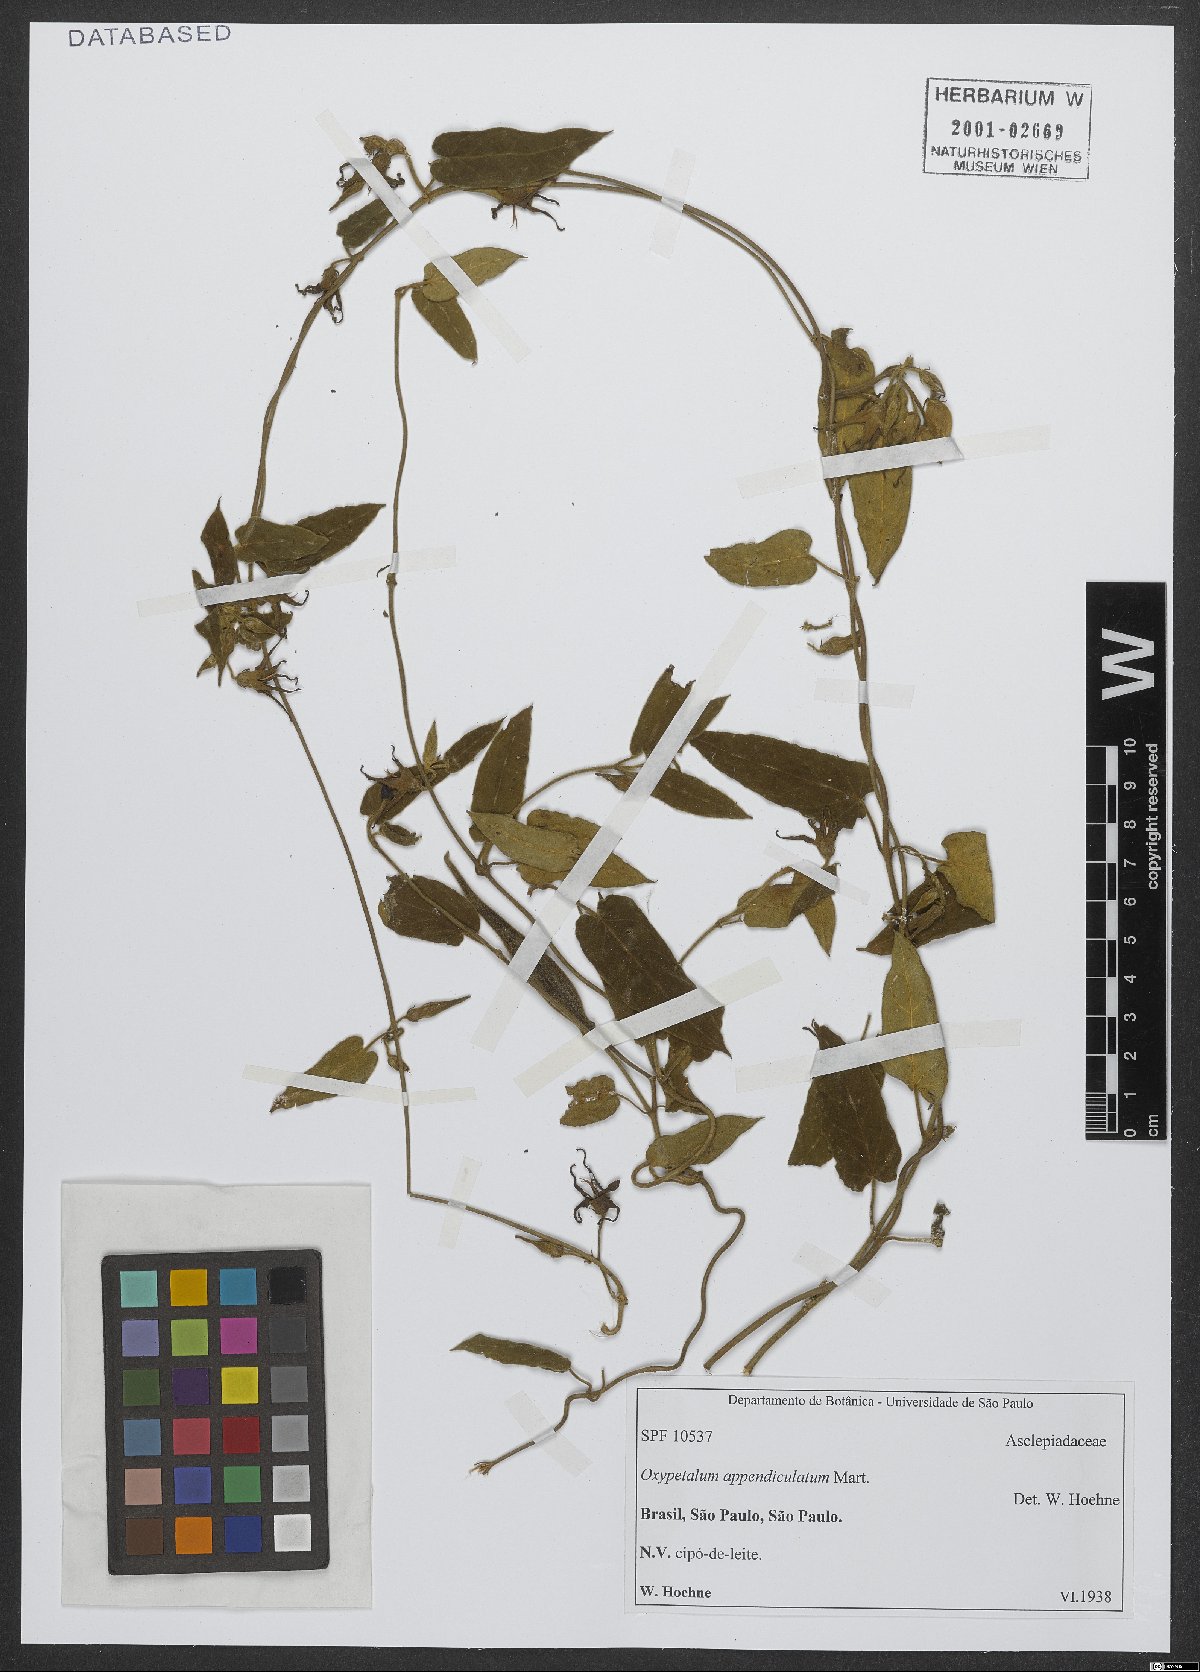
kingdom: Plantae
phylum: Tracheophyta
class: Magnoliopsida
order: Gentianales
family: Apocynaceae
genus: Oxypetalum
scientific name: Oxypetalum appendiculatum
